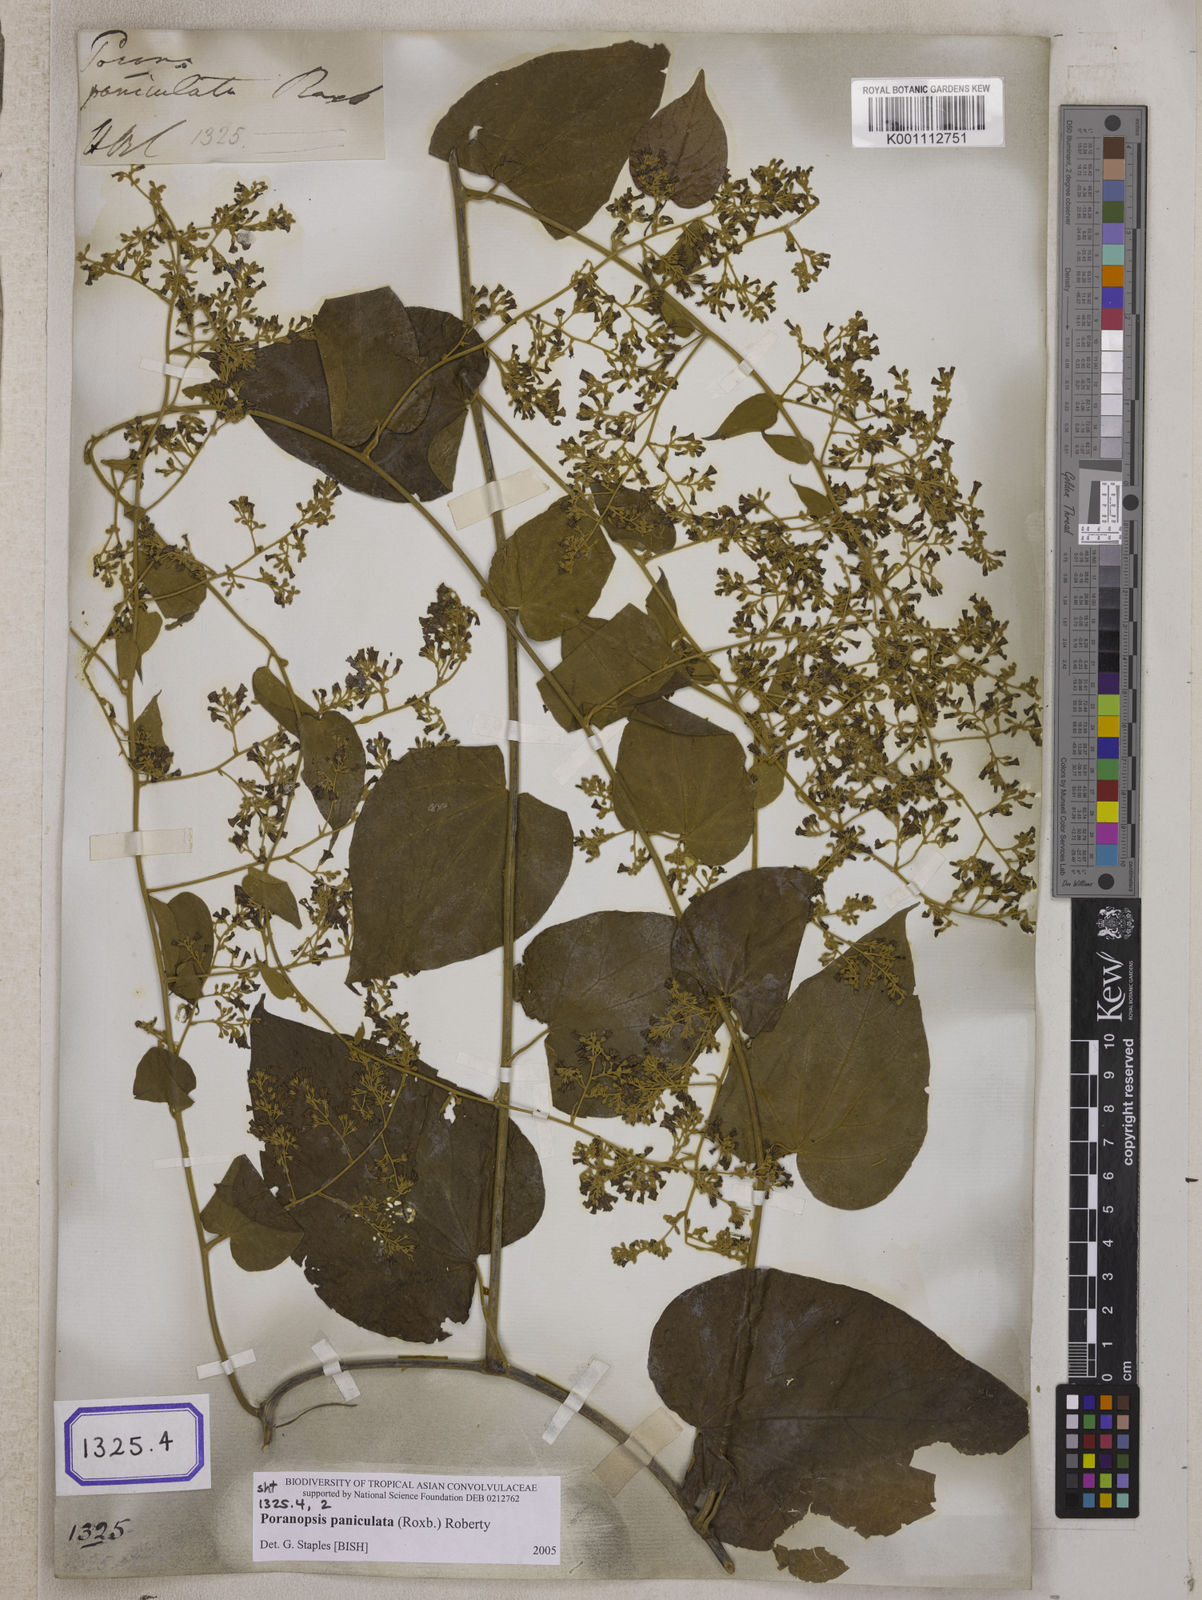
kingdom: Plantae
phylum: Tracheophyta
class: Magnoliopsida
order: Solanales
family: Convolvulaceae
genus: Poranopsis
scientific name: Poranopsis paniculata
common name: Bridal bouquet
